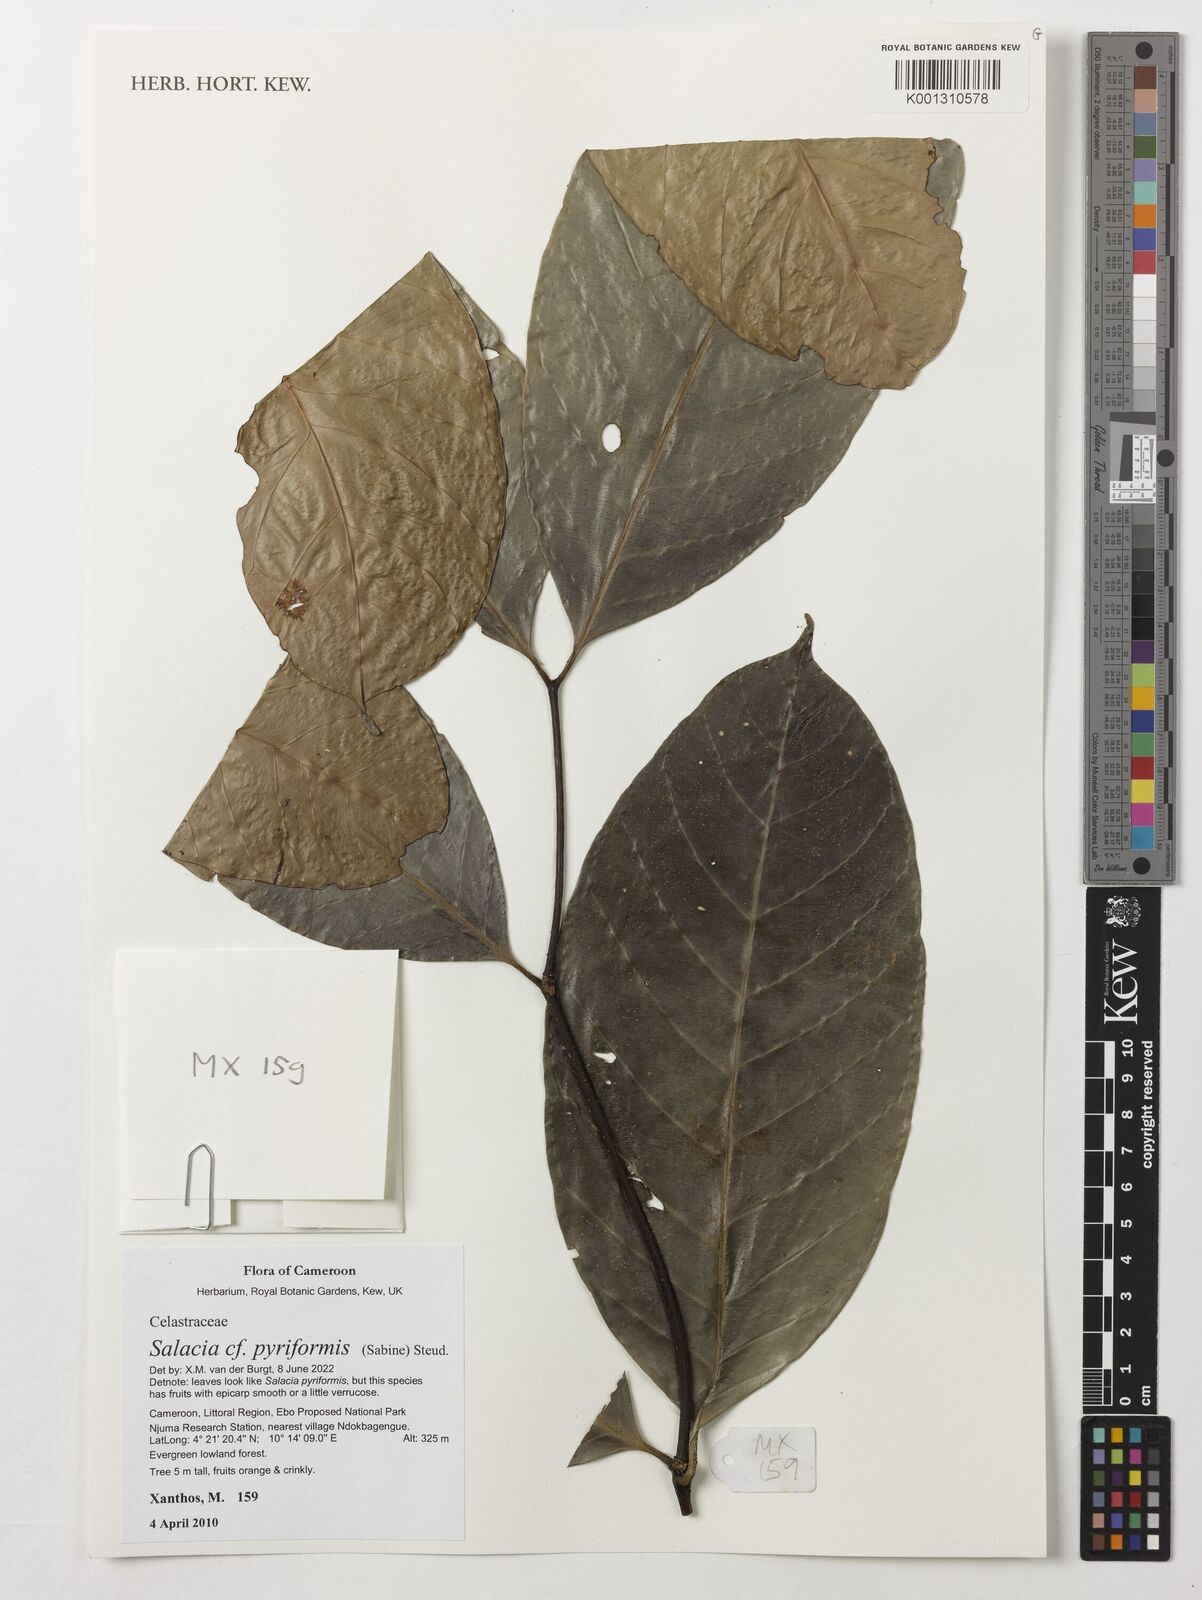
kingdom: Plantae
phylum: Tracheophyta
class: Magnoliopsida
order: Celastrales
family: Celastraceae
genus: Salacia
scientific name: Salacia pyriformis
